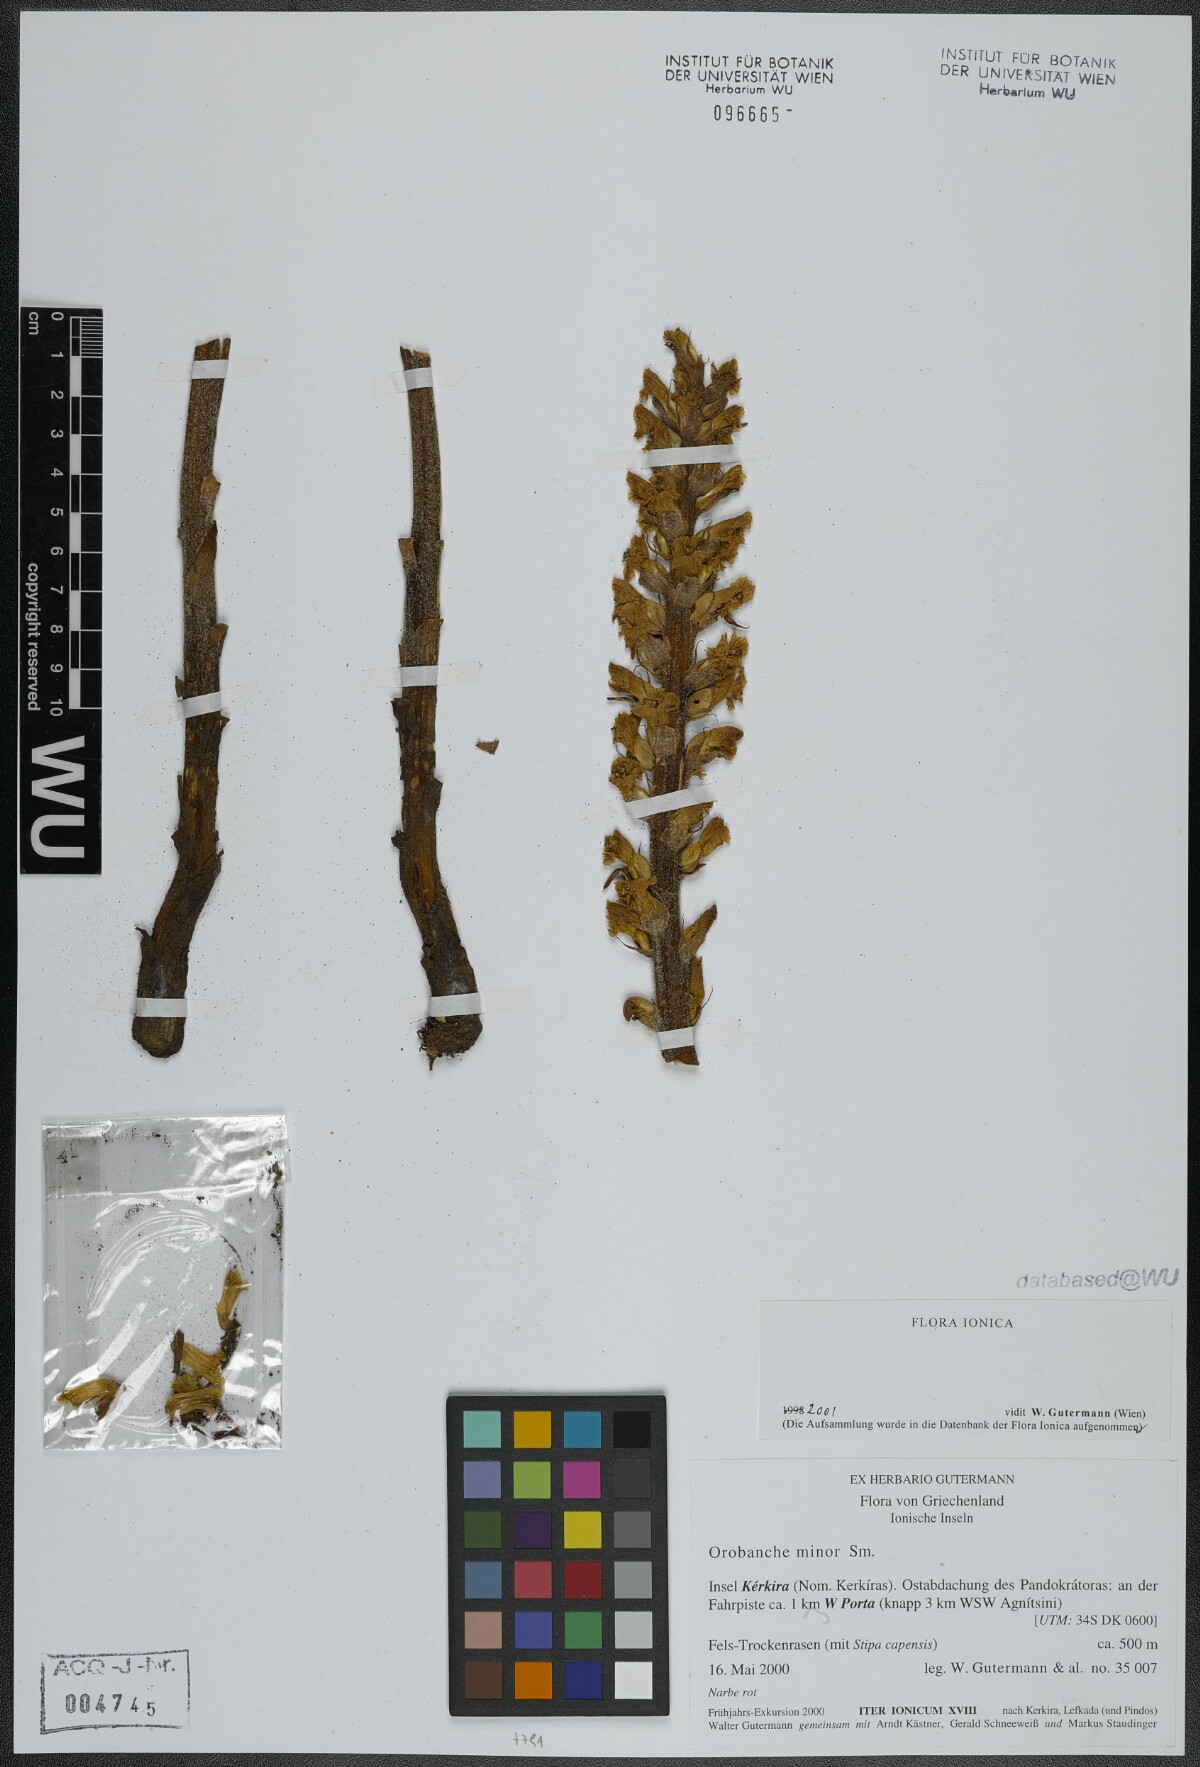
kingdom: Plantae
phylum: Tracheophyta
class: Magnoliopsida
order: Lamiales
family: Orobanchaceae
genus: Orobanche
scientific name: Orobanche grisebachii
